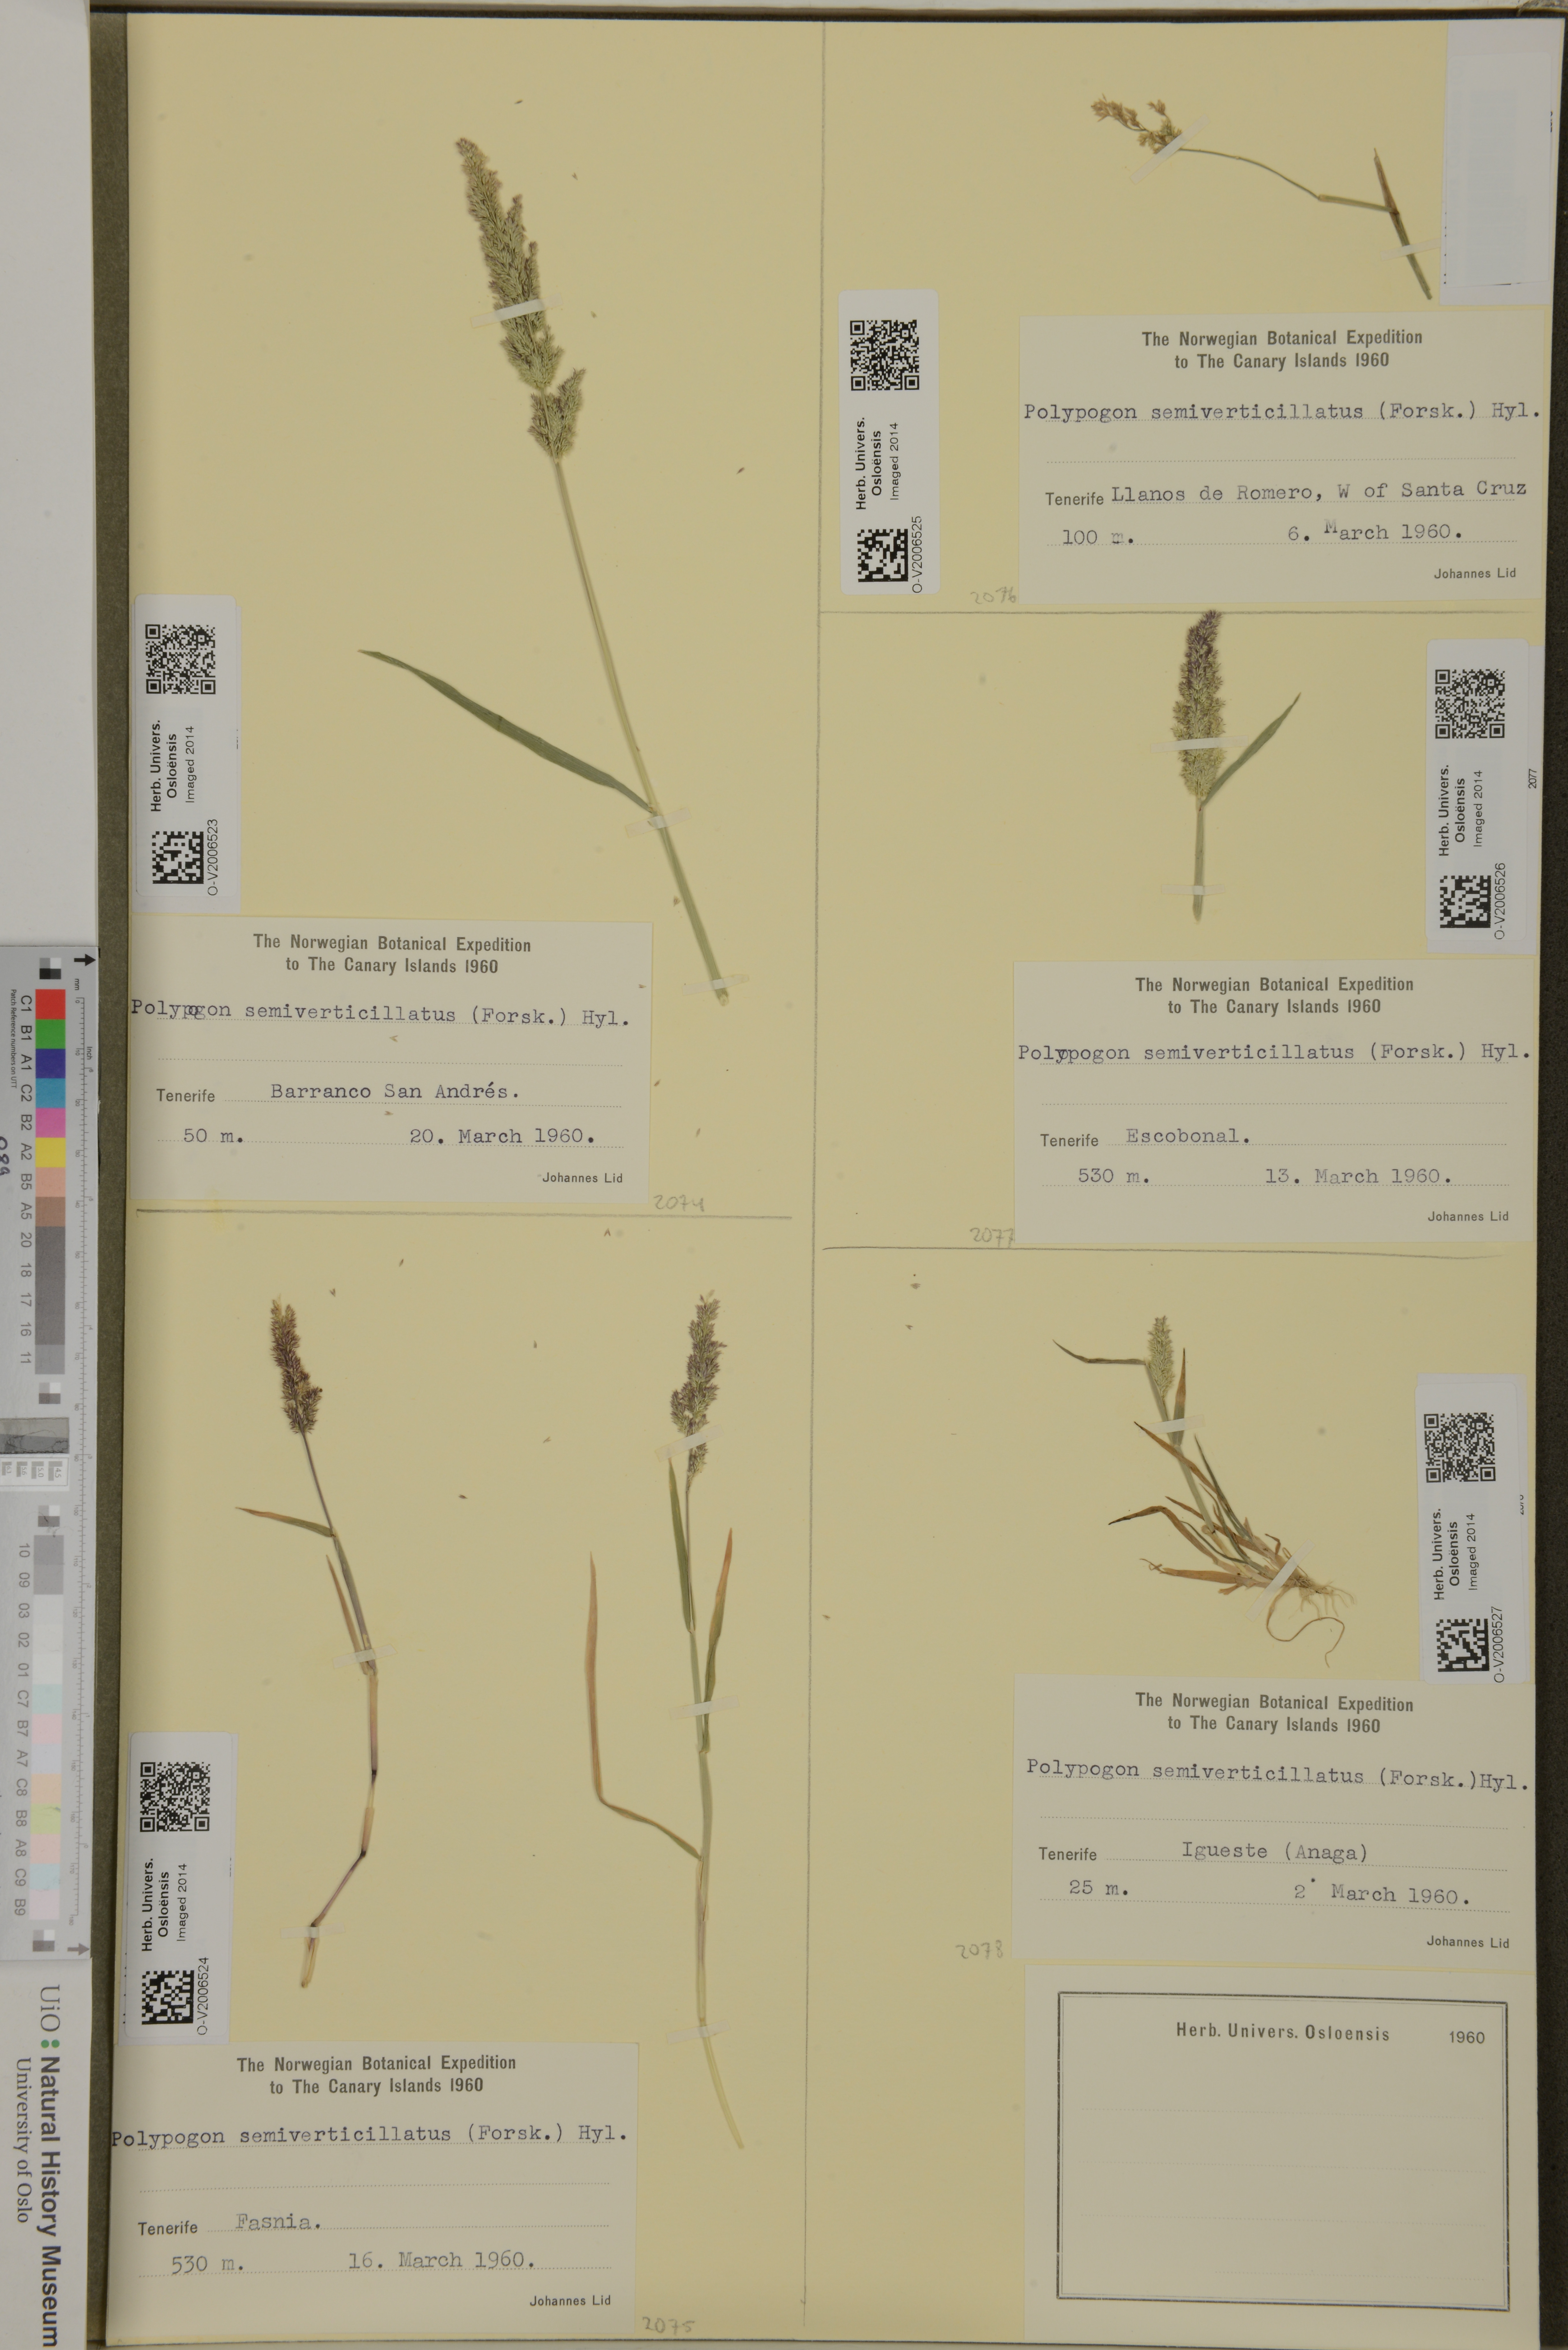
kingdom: Plantae
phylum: Tracheophyta
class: Liliopsida
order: Poales
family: Poaceae
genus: Polypogon
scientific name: Polypogon viridis
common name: Water bent
